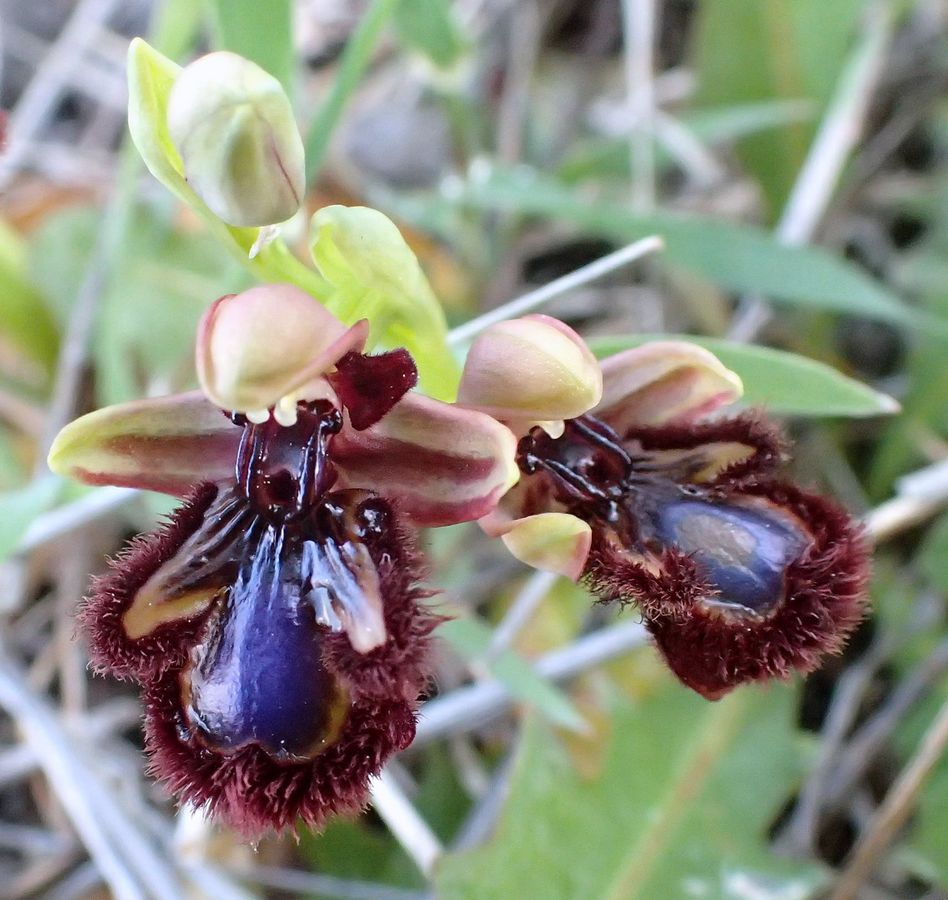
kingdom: Plantae
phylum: Tracheophyta
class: Liliopsida
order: Asparagales
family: Orchidaceae
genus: Ophrys
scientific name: Ophrys speculum
